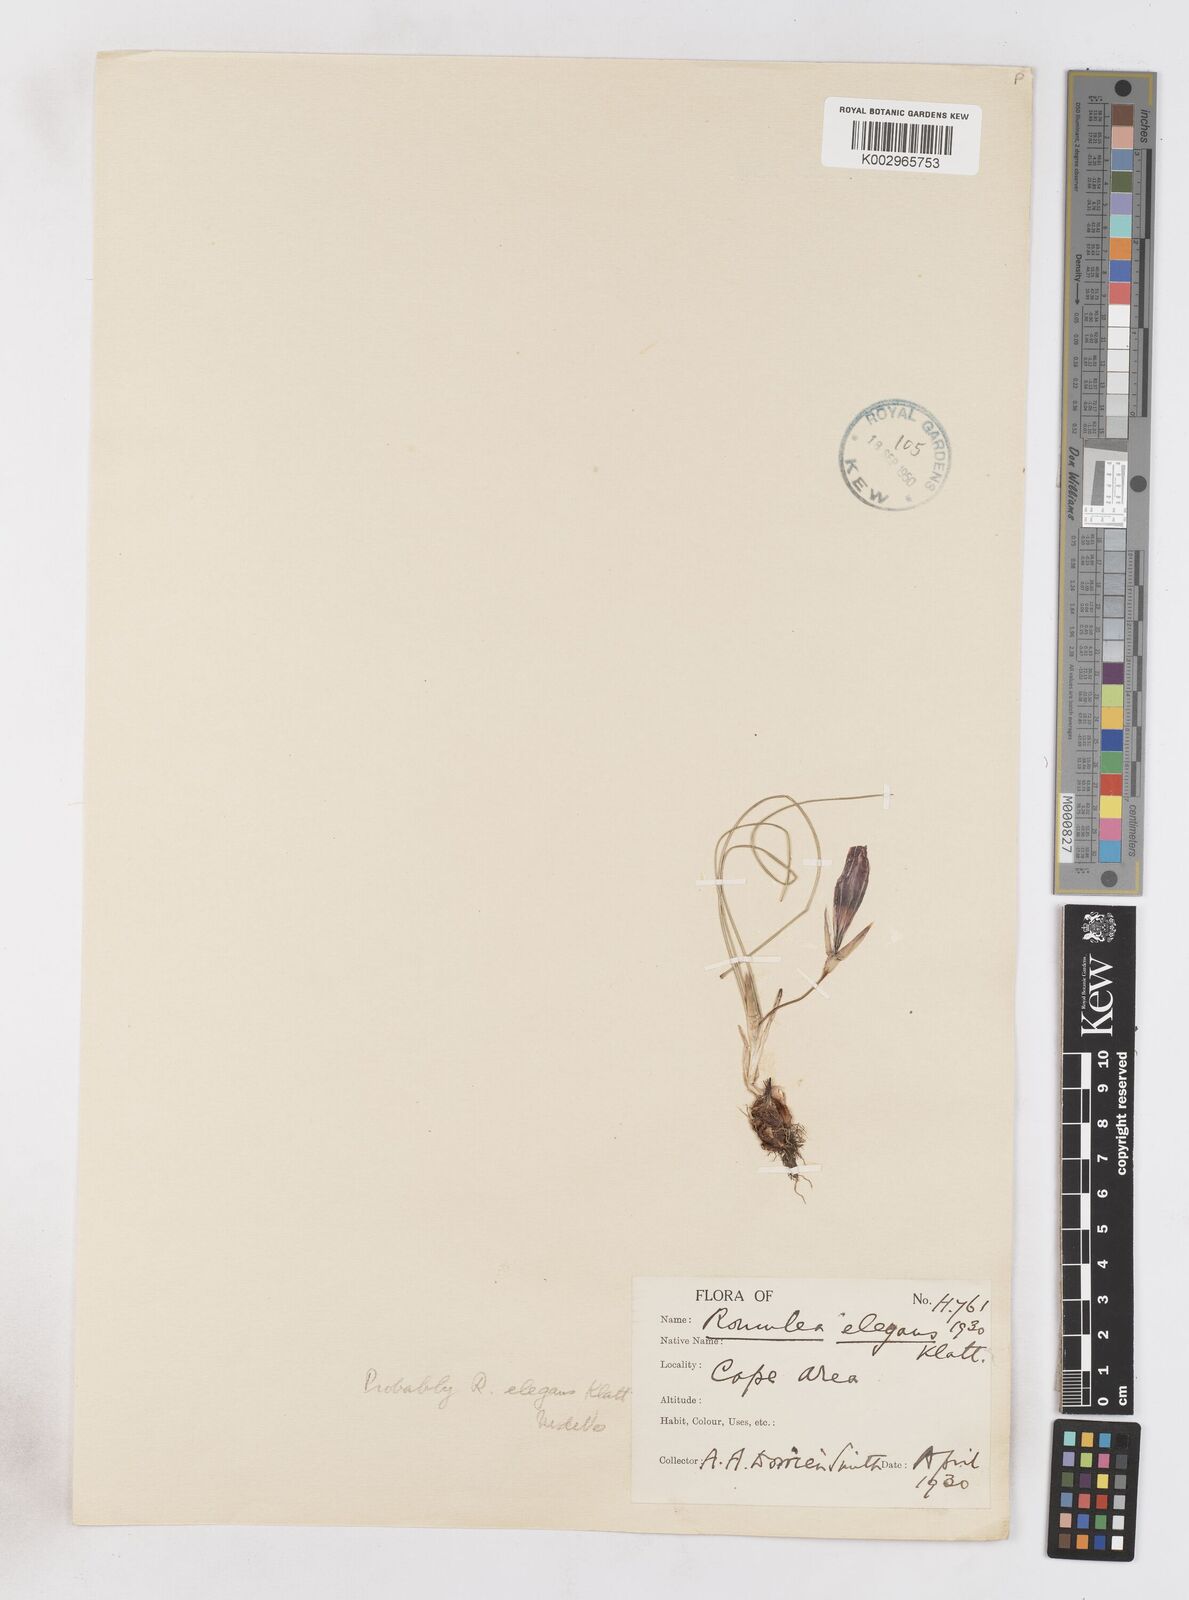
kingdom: Plantae
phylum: Tracheophyta
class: Liliopsida
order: Asparagales
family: Iridaceae
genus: Romulea
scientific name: Romulea rosea
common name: Oniongrass
